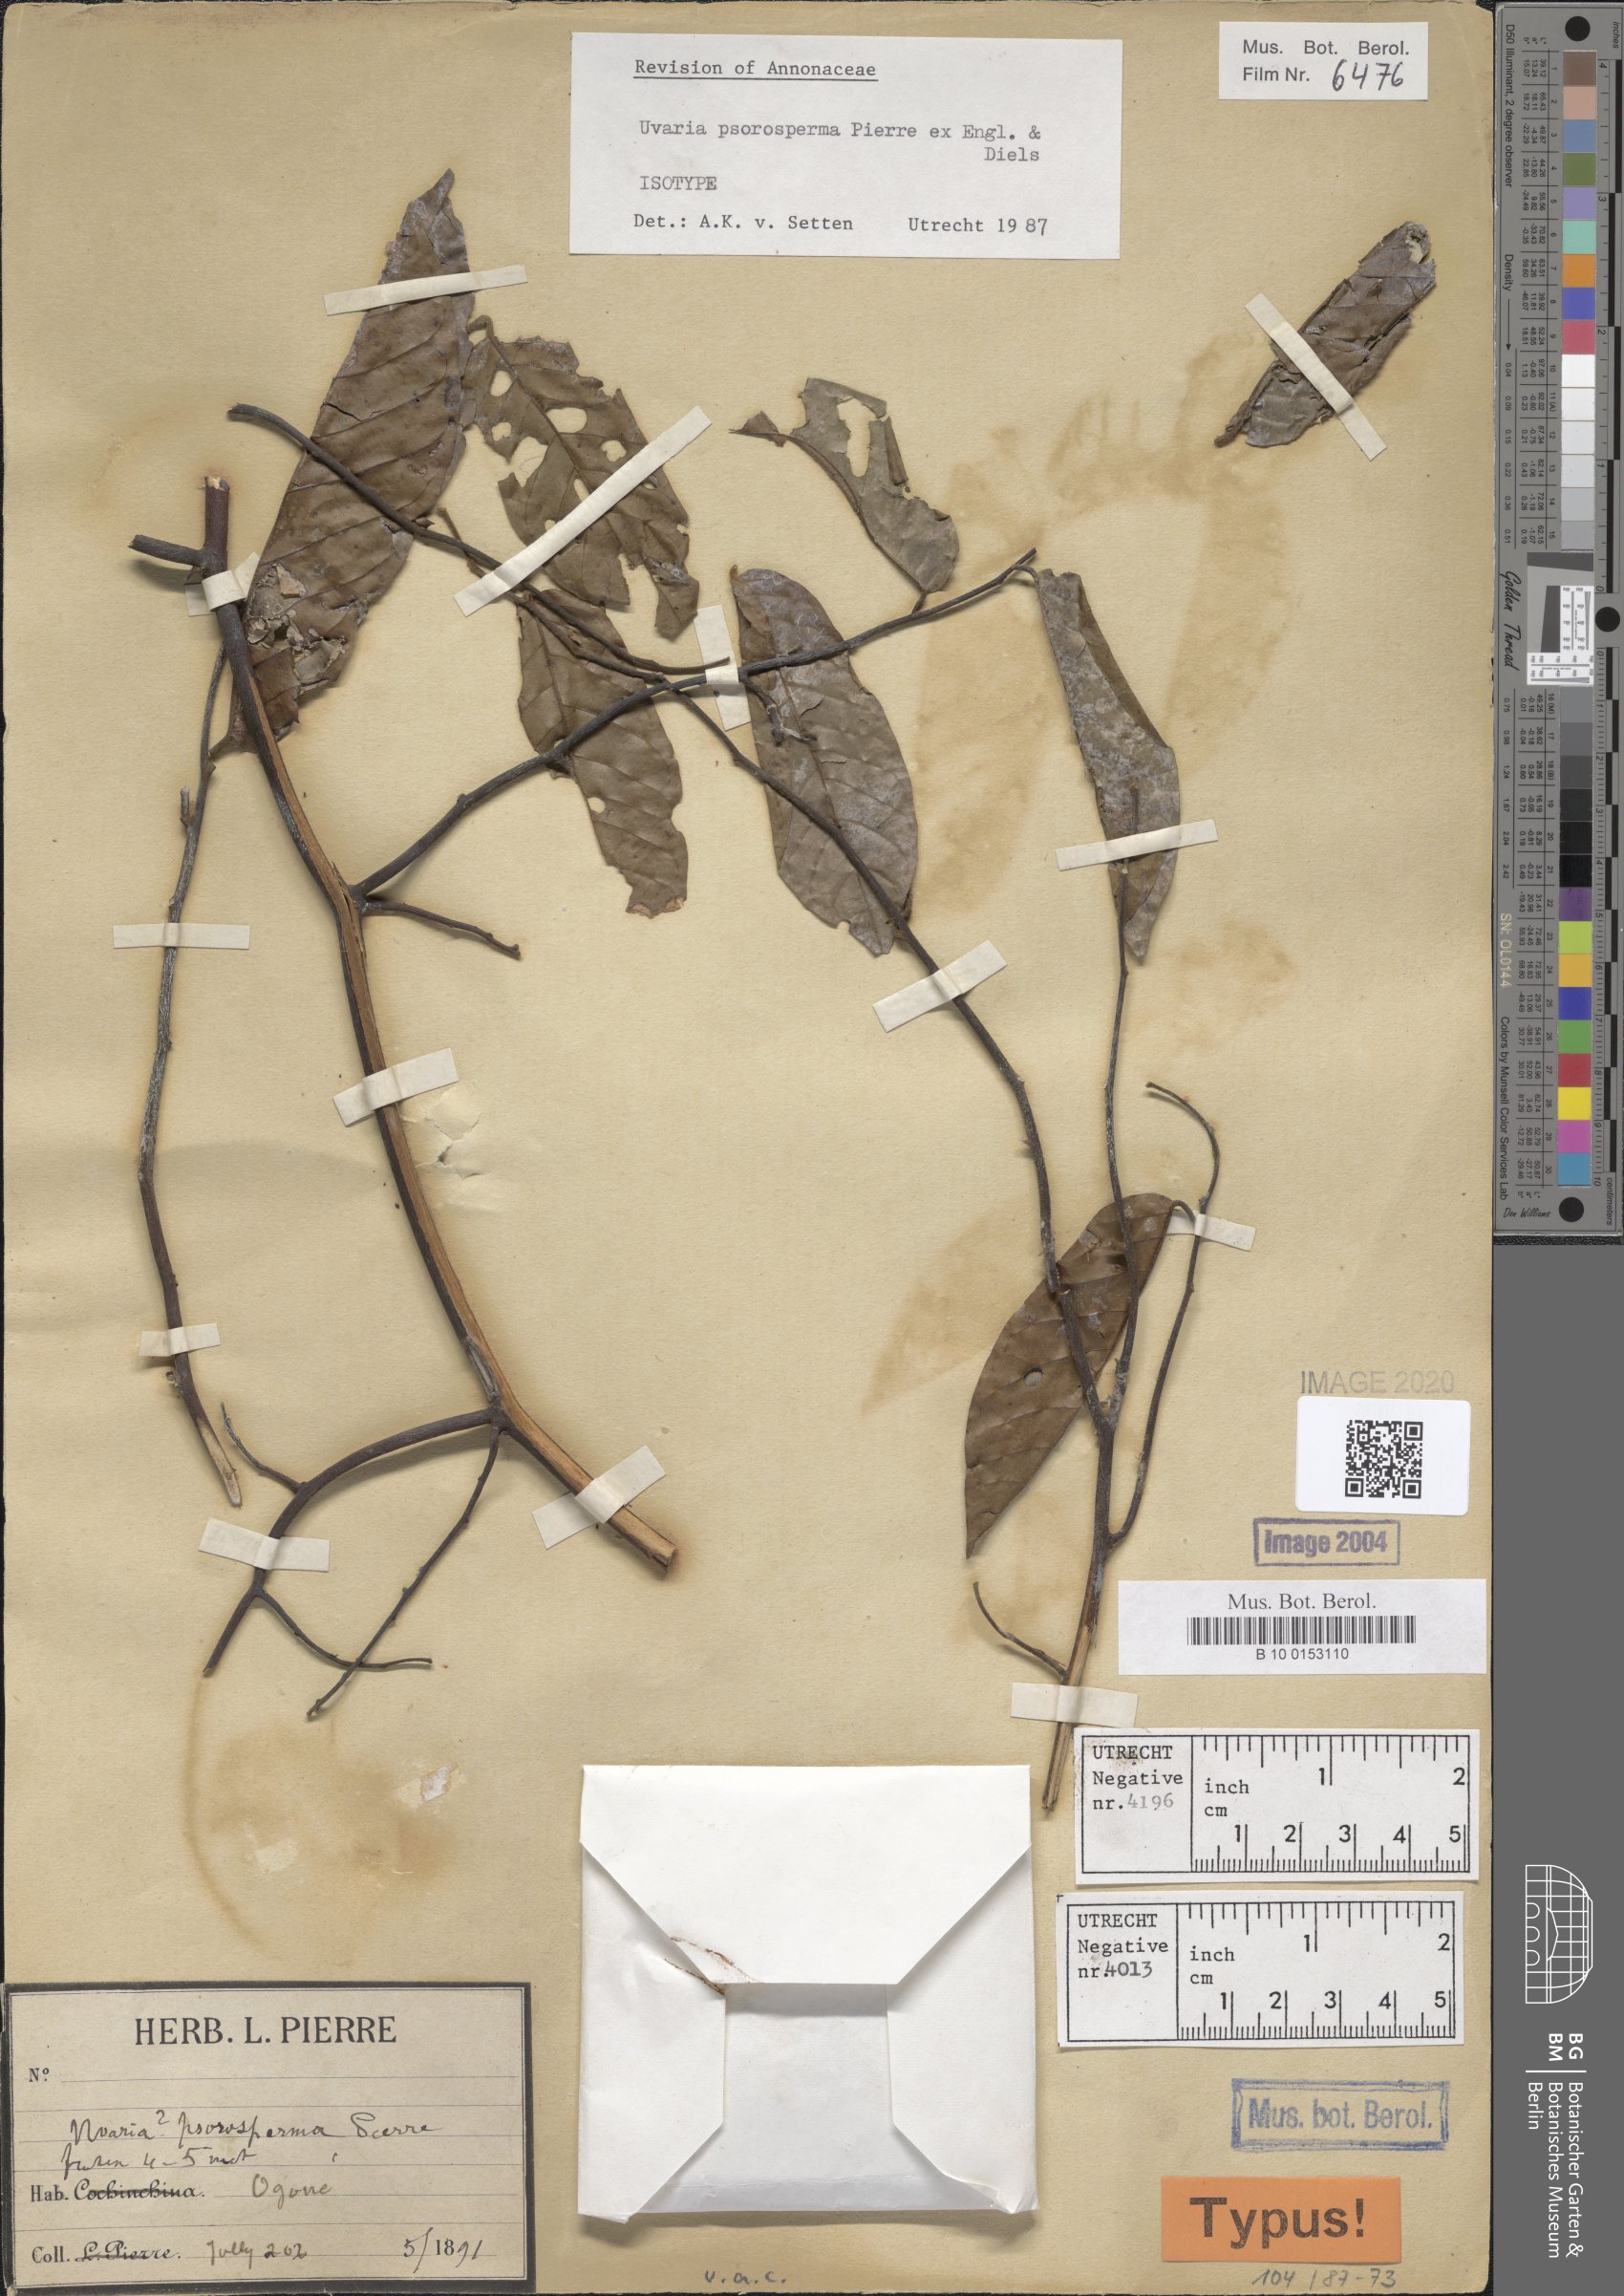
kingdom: Plantae
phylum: Tracheophyta
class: Magnoliopsida
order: Magnoliales
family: Annonaceae
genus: Uvaria
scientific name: Uvaria psorosperma
